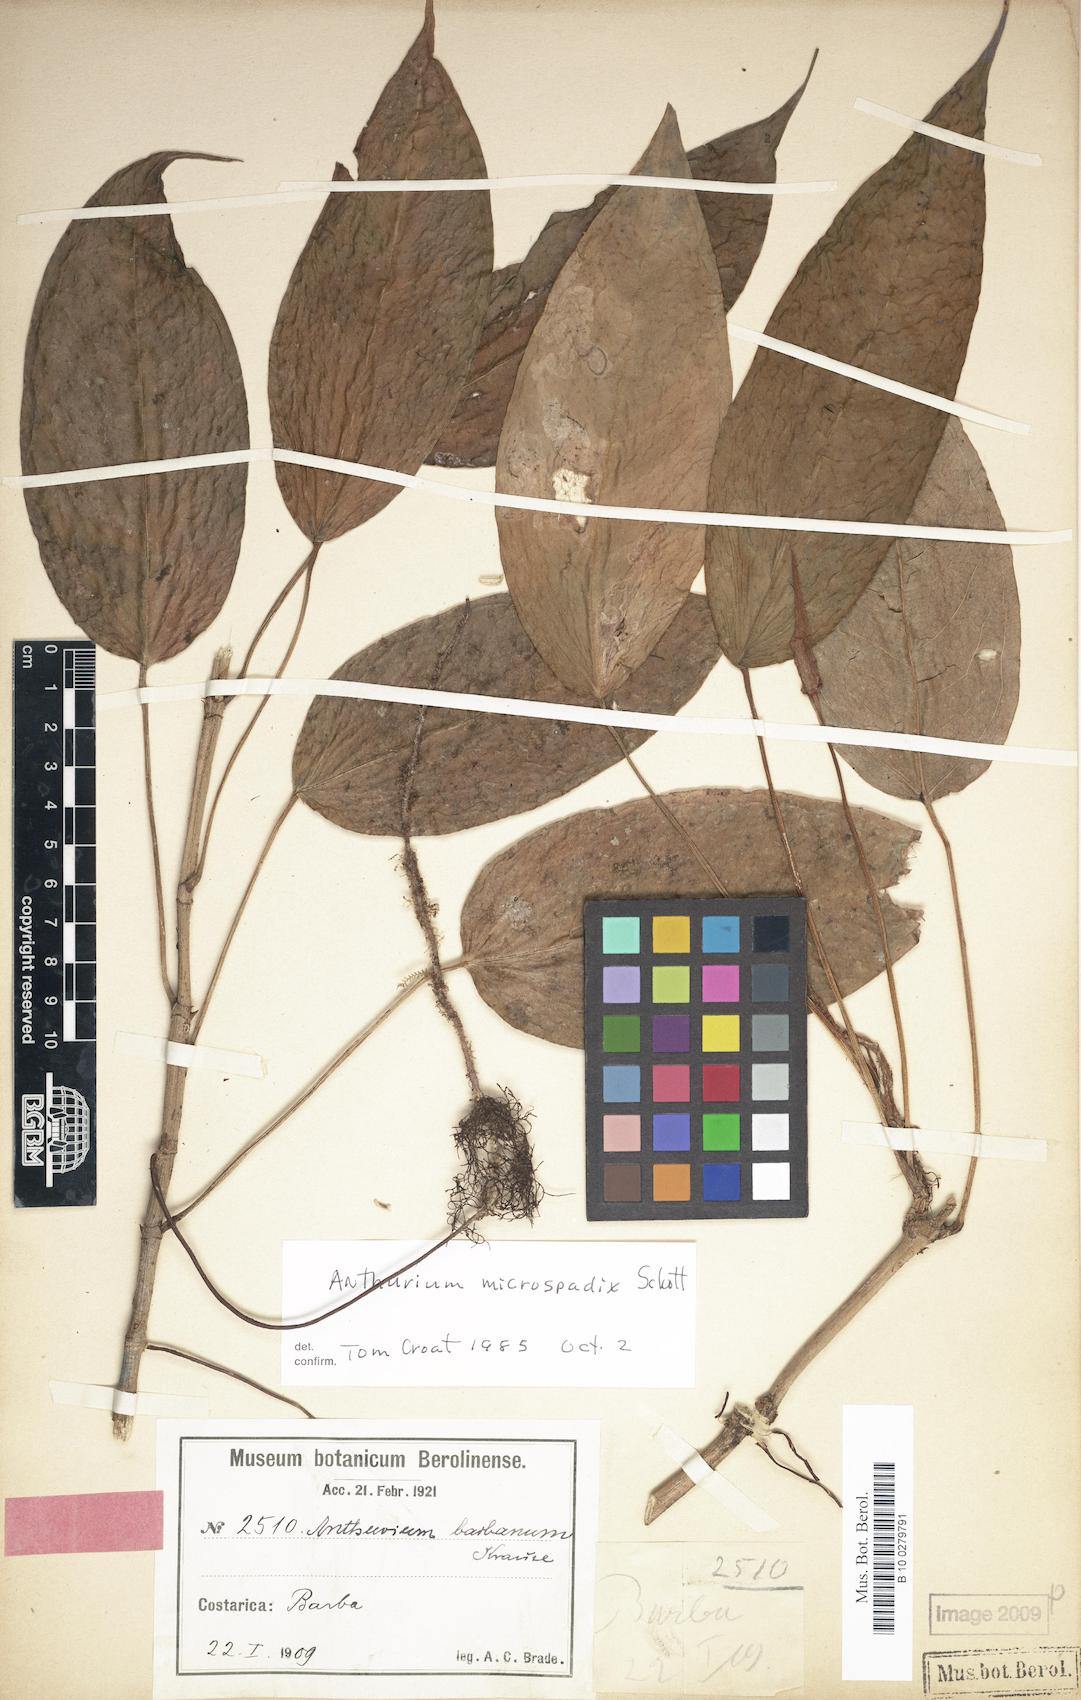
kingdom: Plantae
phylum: Tracheophyta
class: Liliopsida
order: Alismatales
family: Araceae
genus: Anthurium
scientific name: Anthurium microspadix
